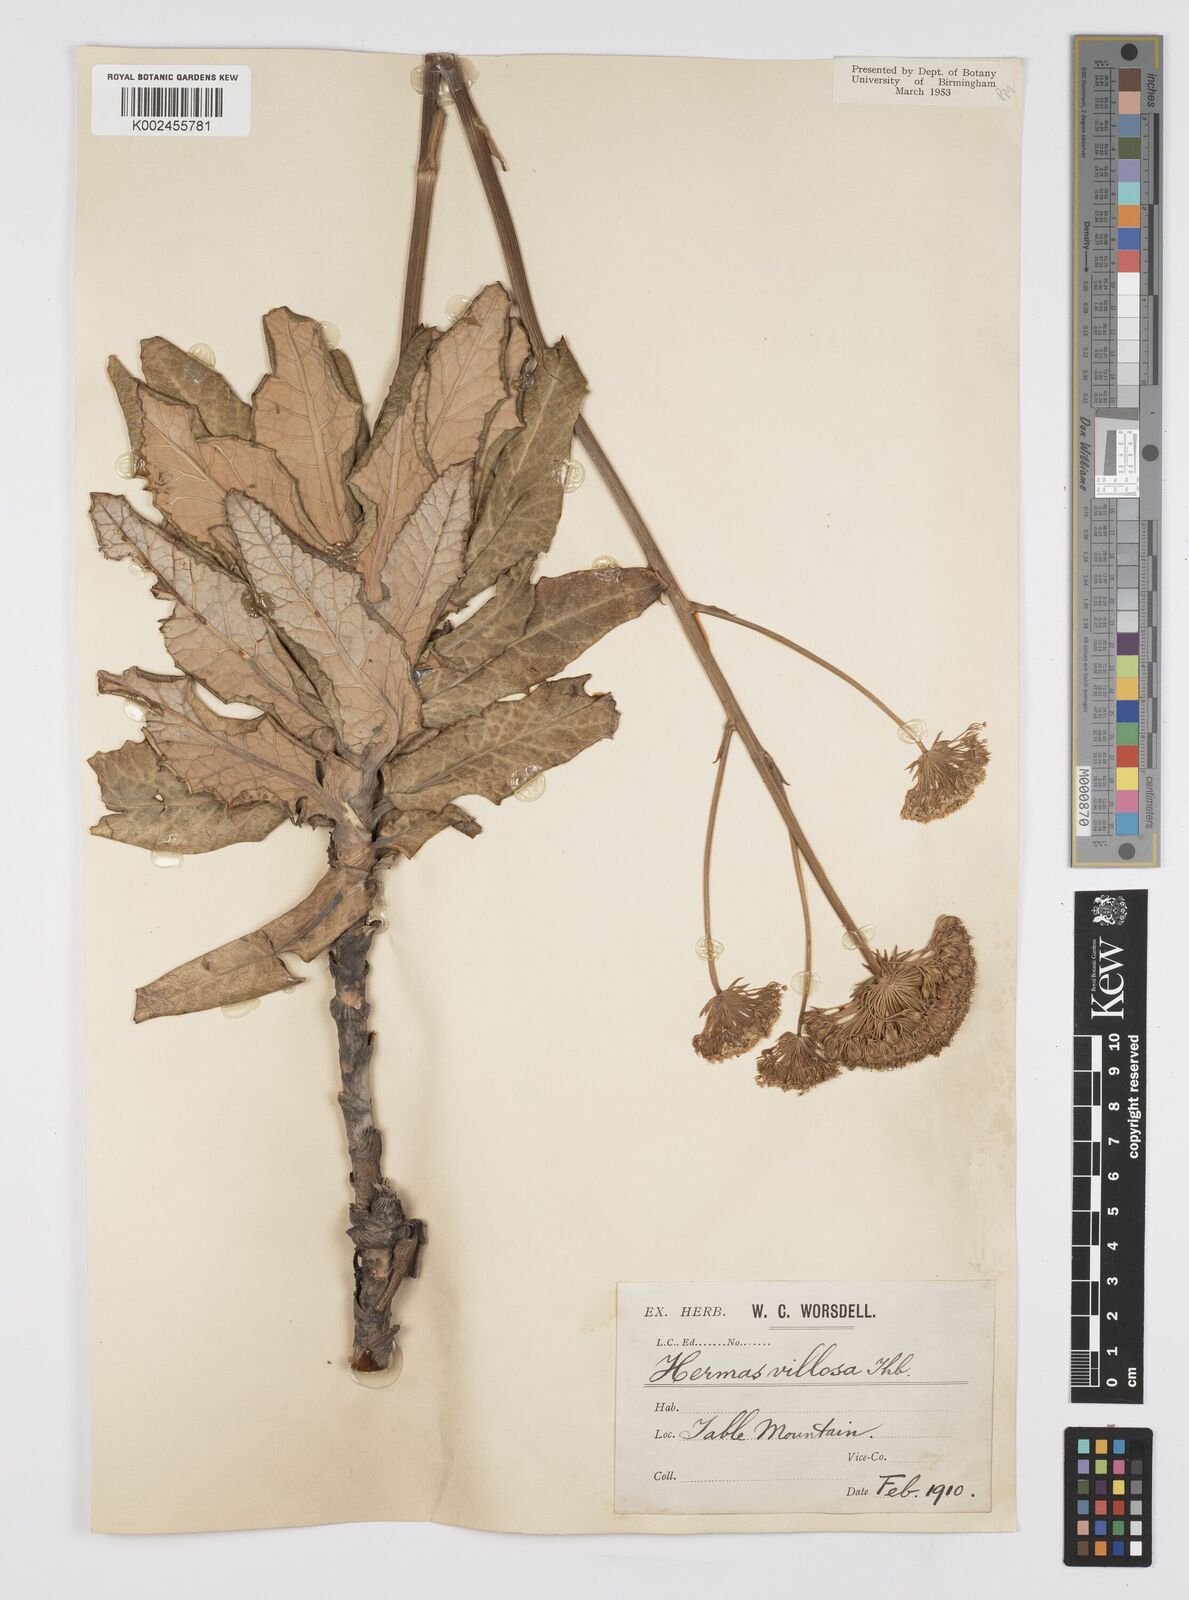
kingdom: Plantae
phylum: Tracheophyta
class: Magnoliopsida
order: Apiales
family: Apiaceae
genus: Hermas
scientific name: Hermas villosa
